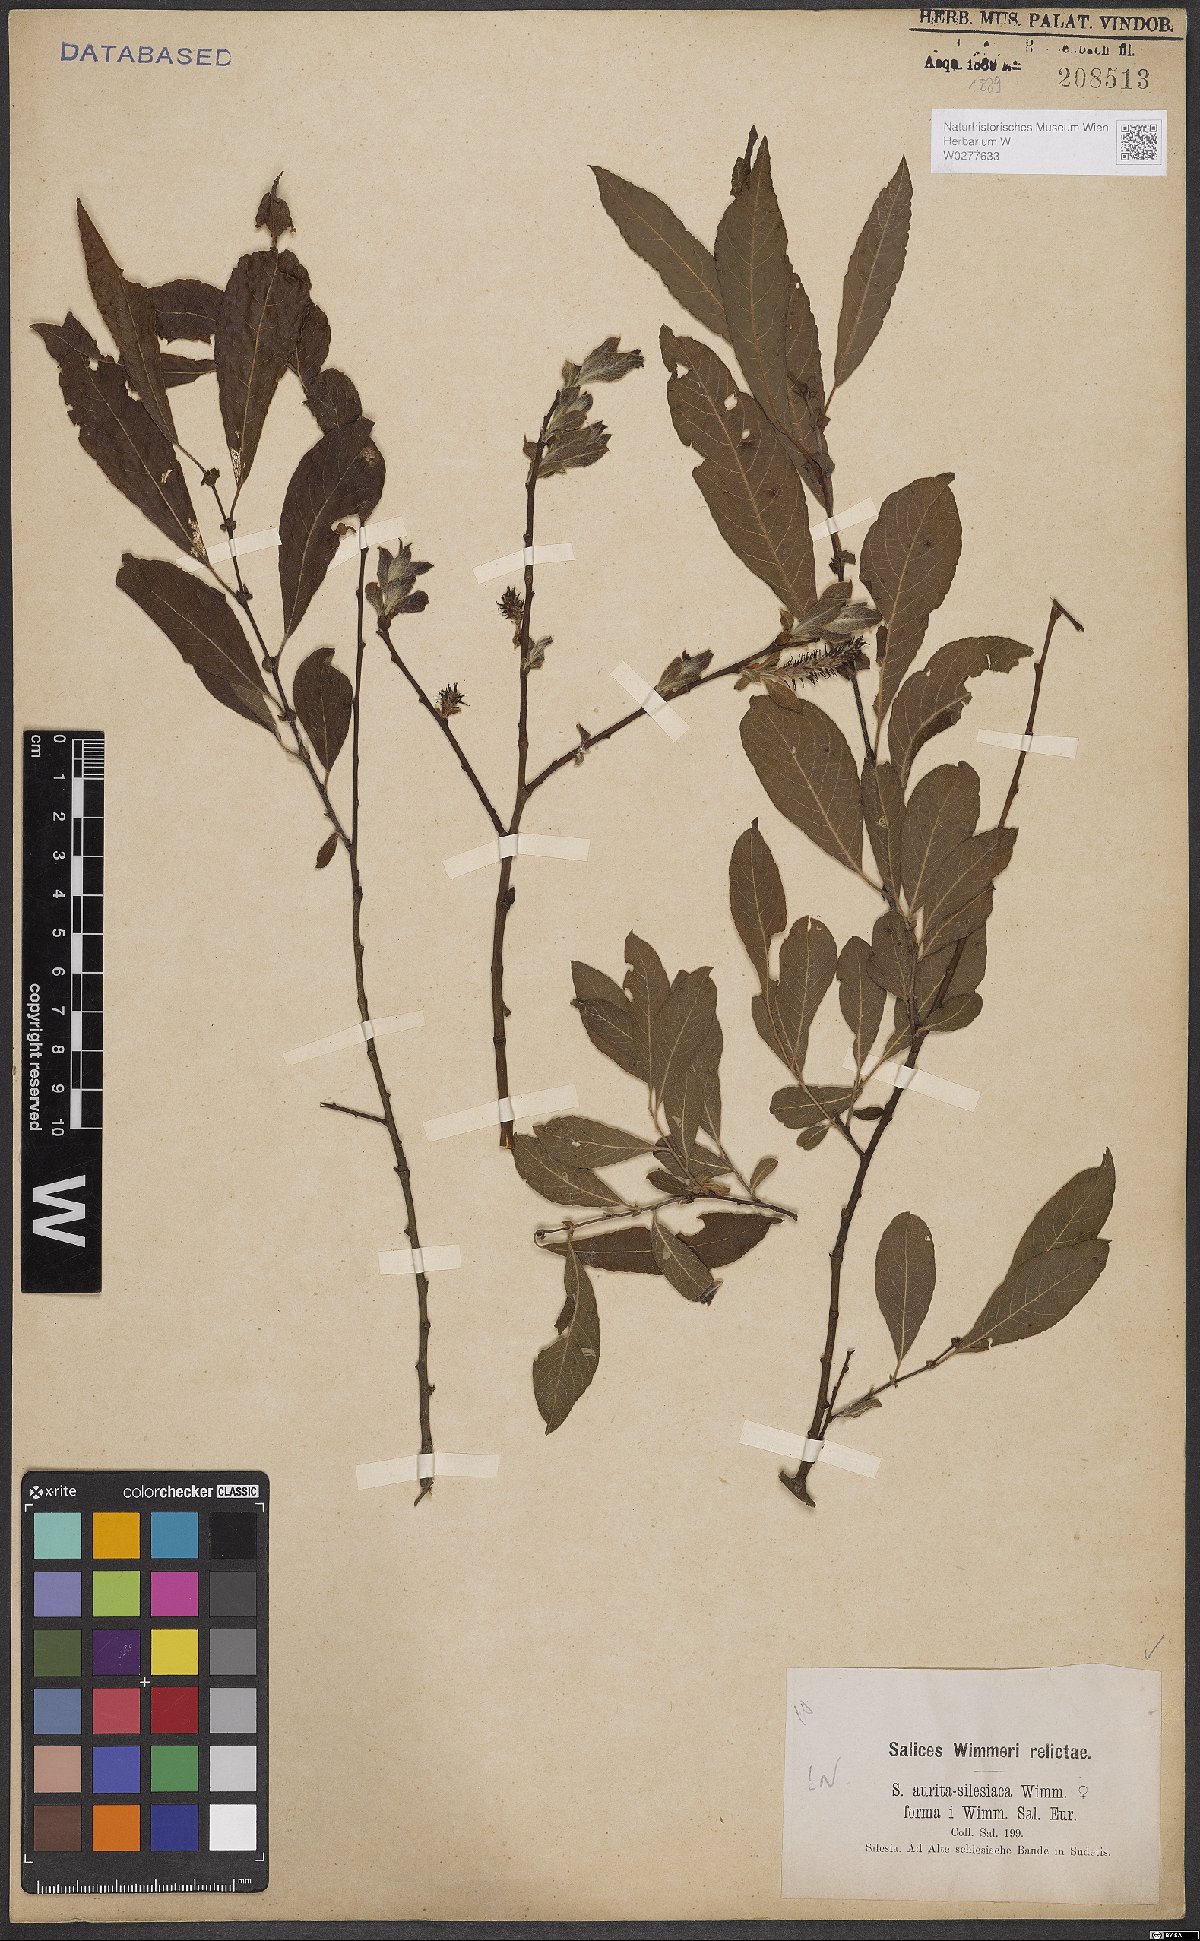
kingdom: Plantae
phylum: Tracheophyta
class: Magnoliopsida
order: Malpighiales
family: Salicaceae
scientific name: Salicaceae
